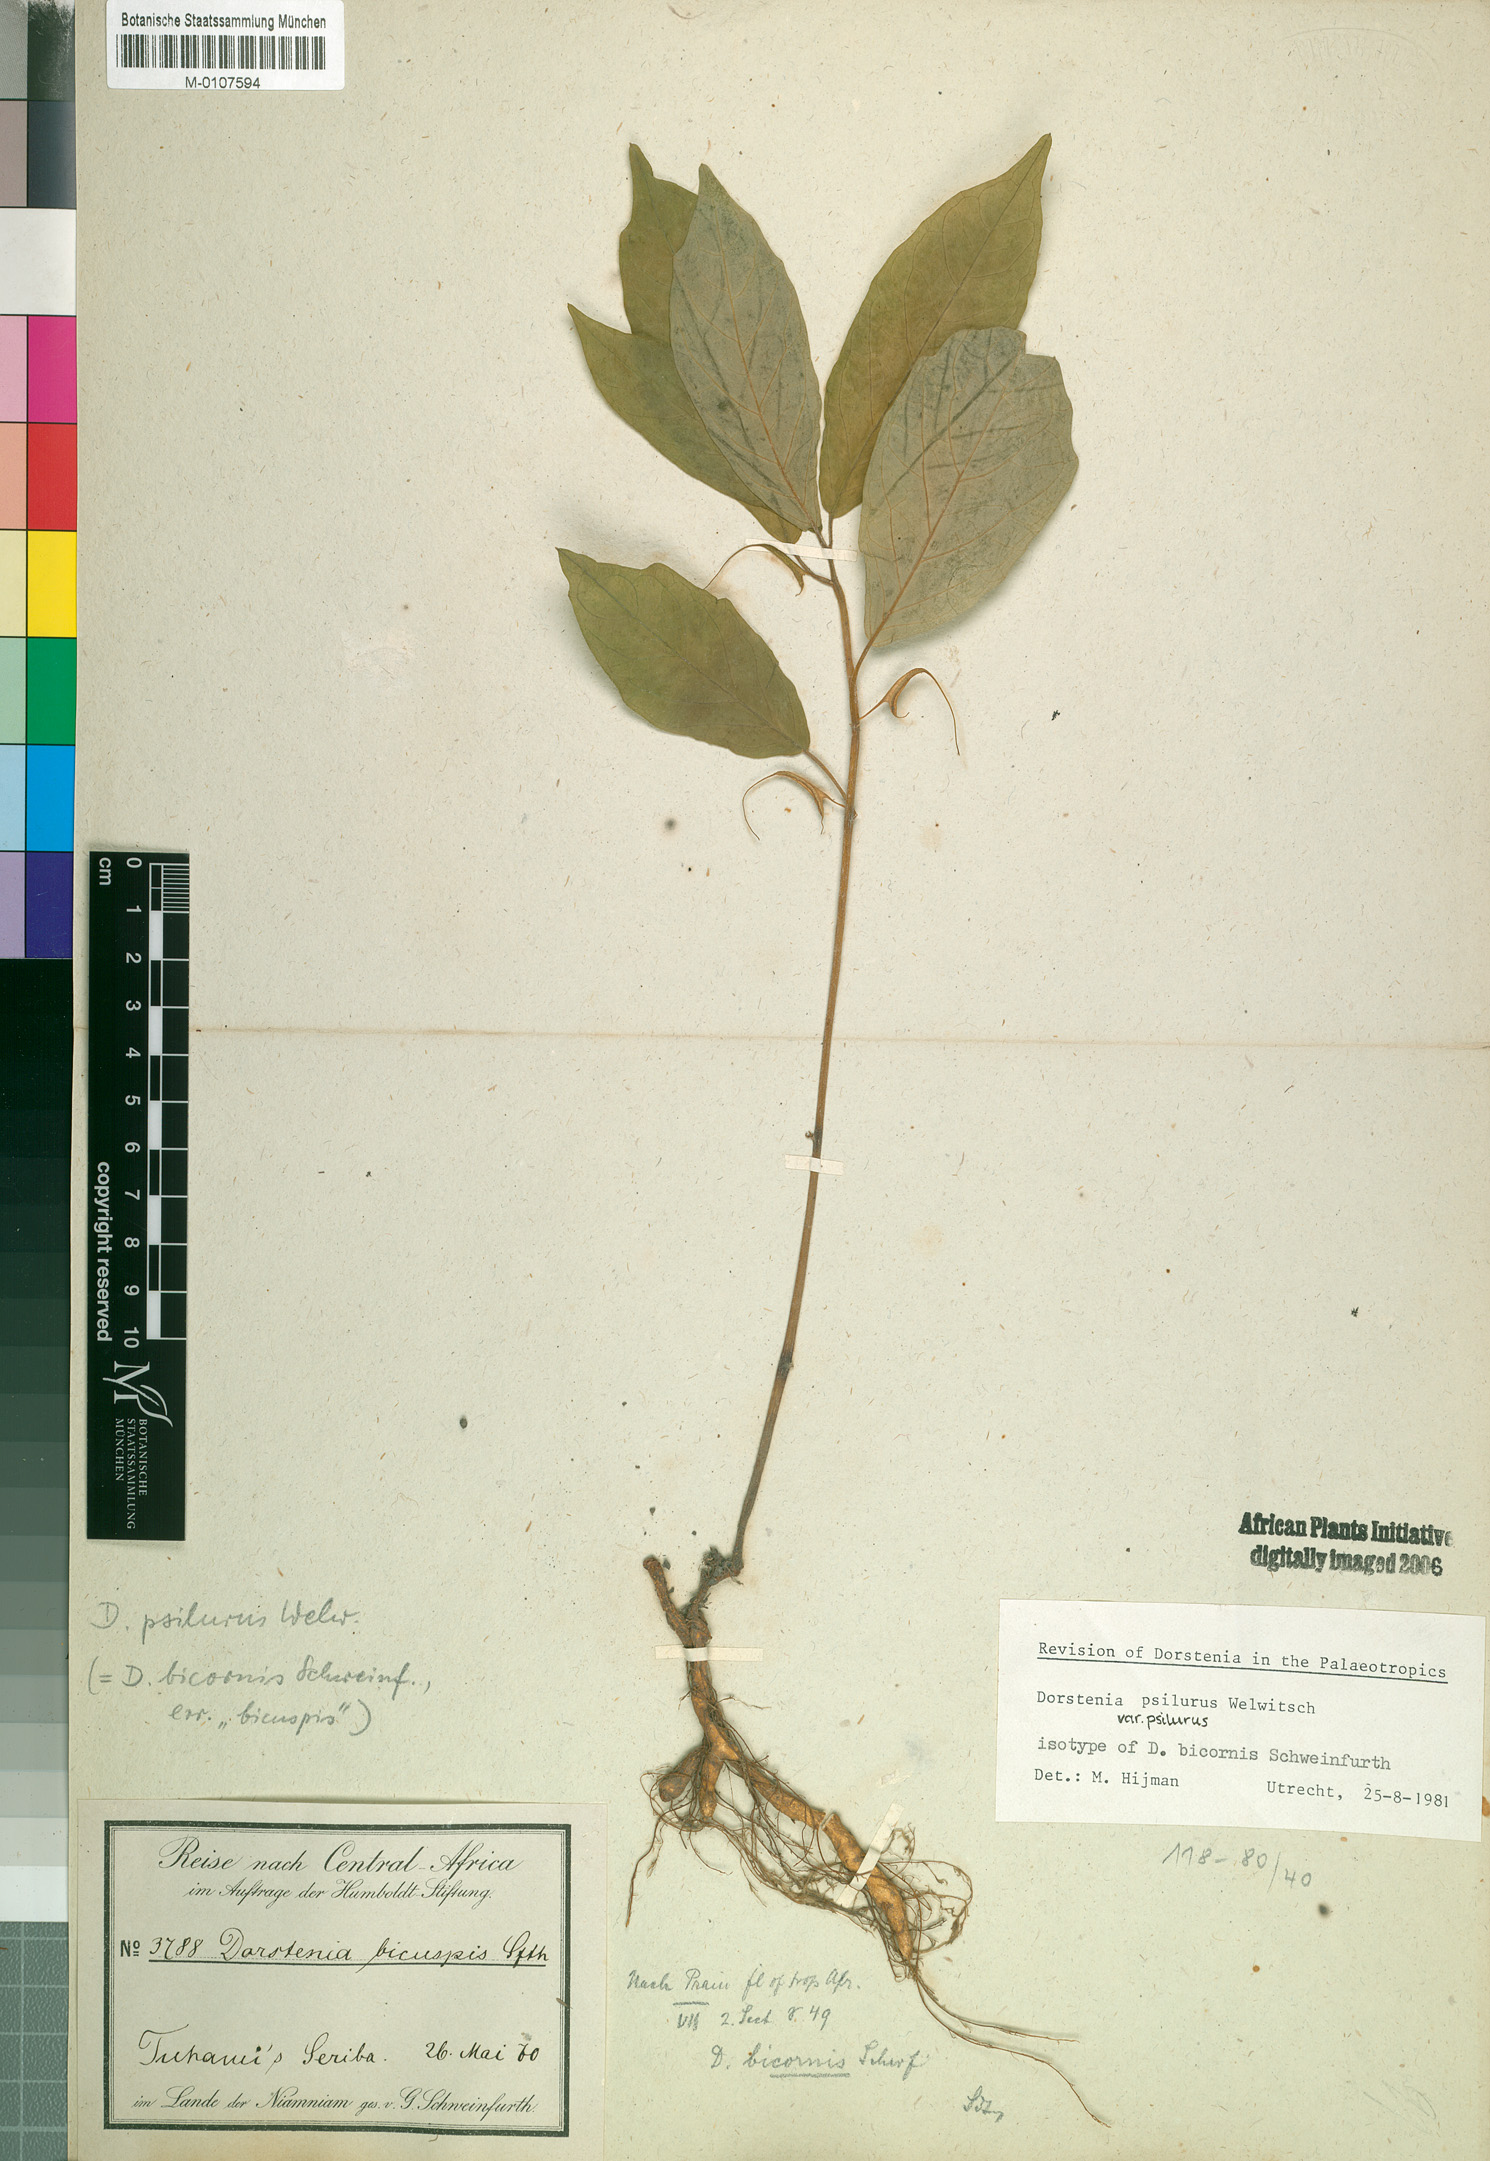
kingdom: Plantae
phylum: Tracheophyta
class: Magnoliopsida
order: Rosales
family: Moraceae
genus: Dorstenia
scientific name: Dorstenia psilurus
